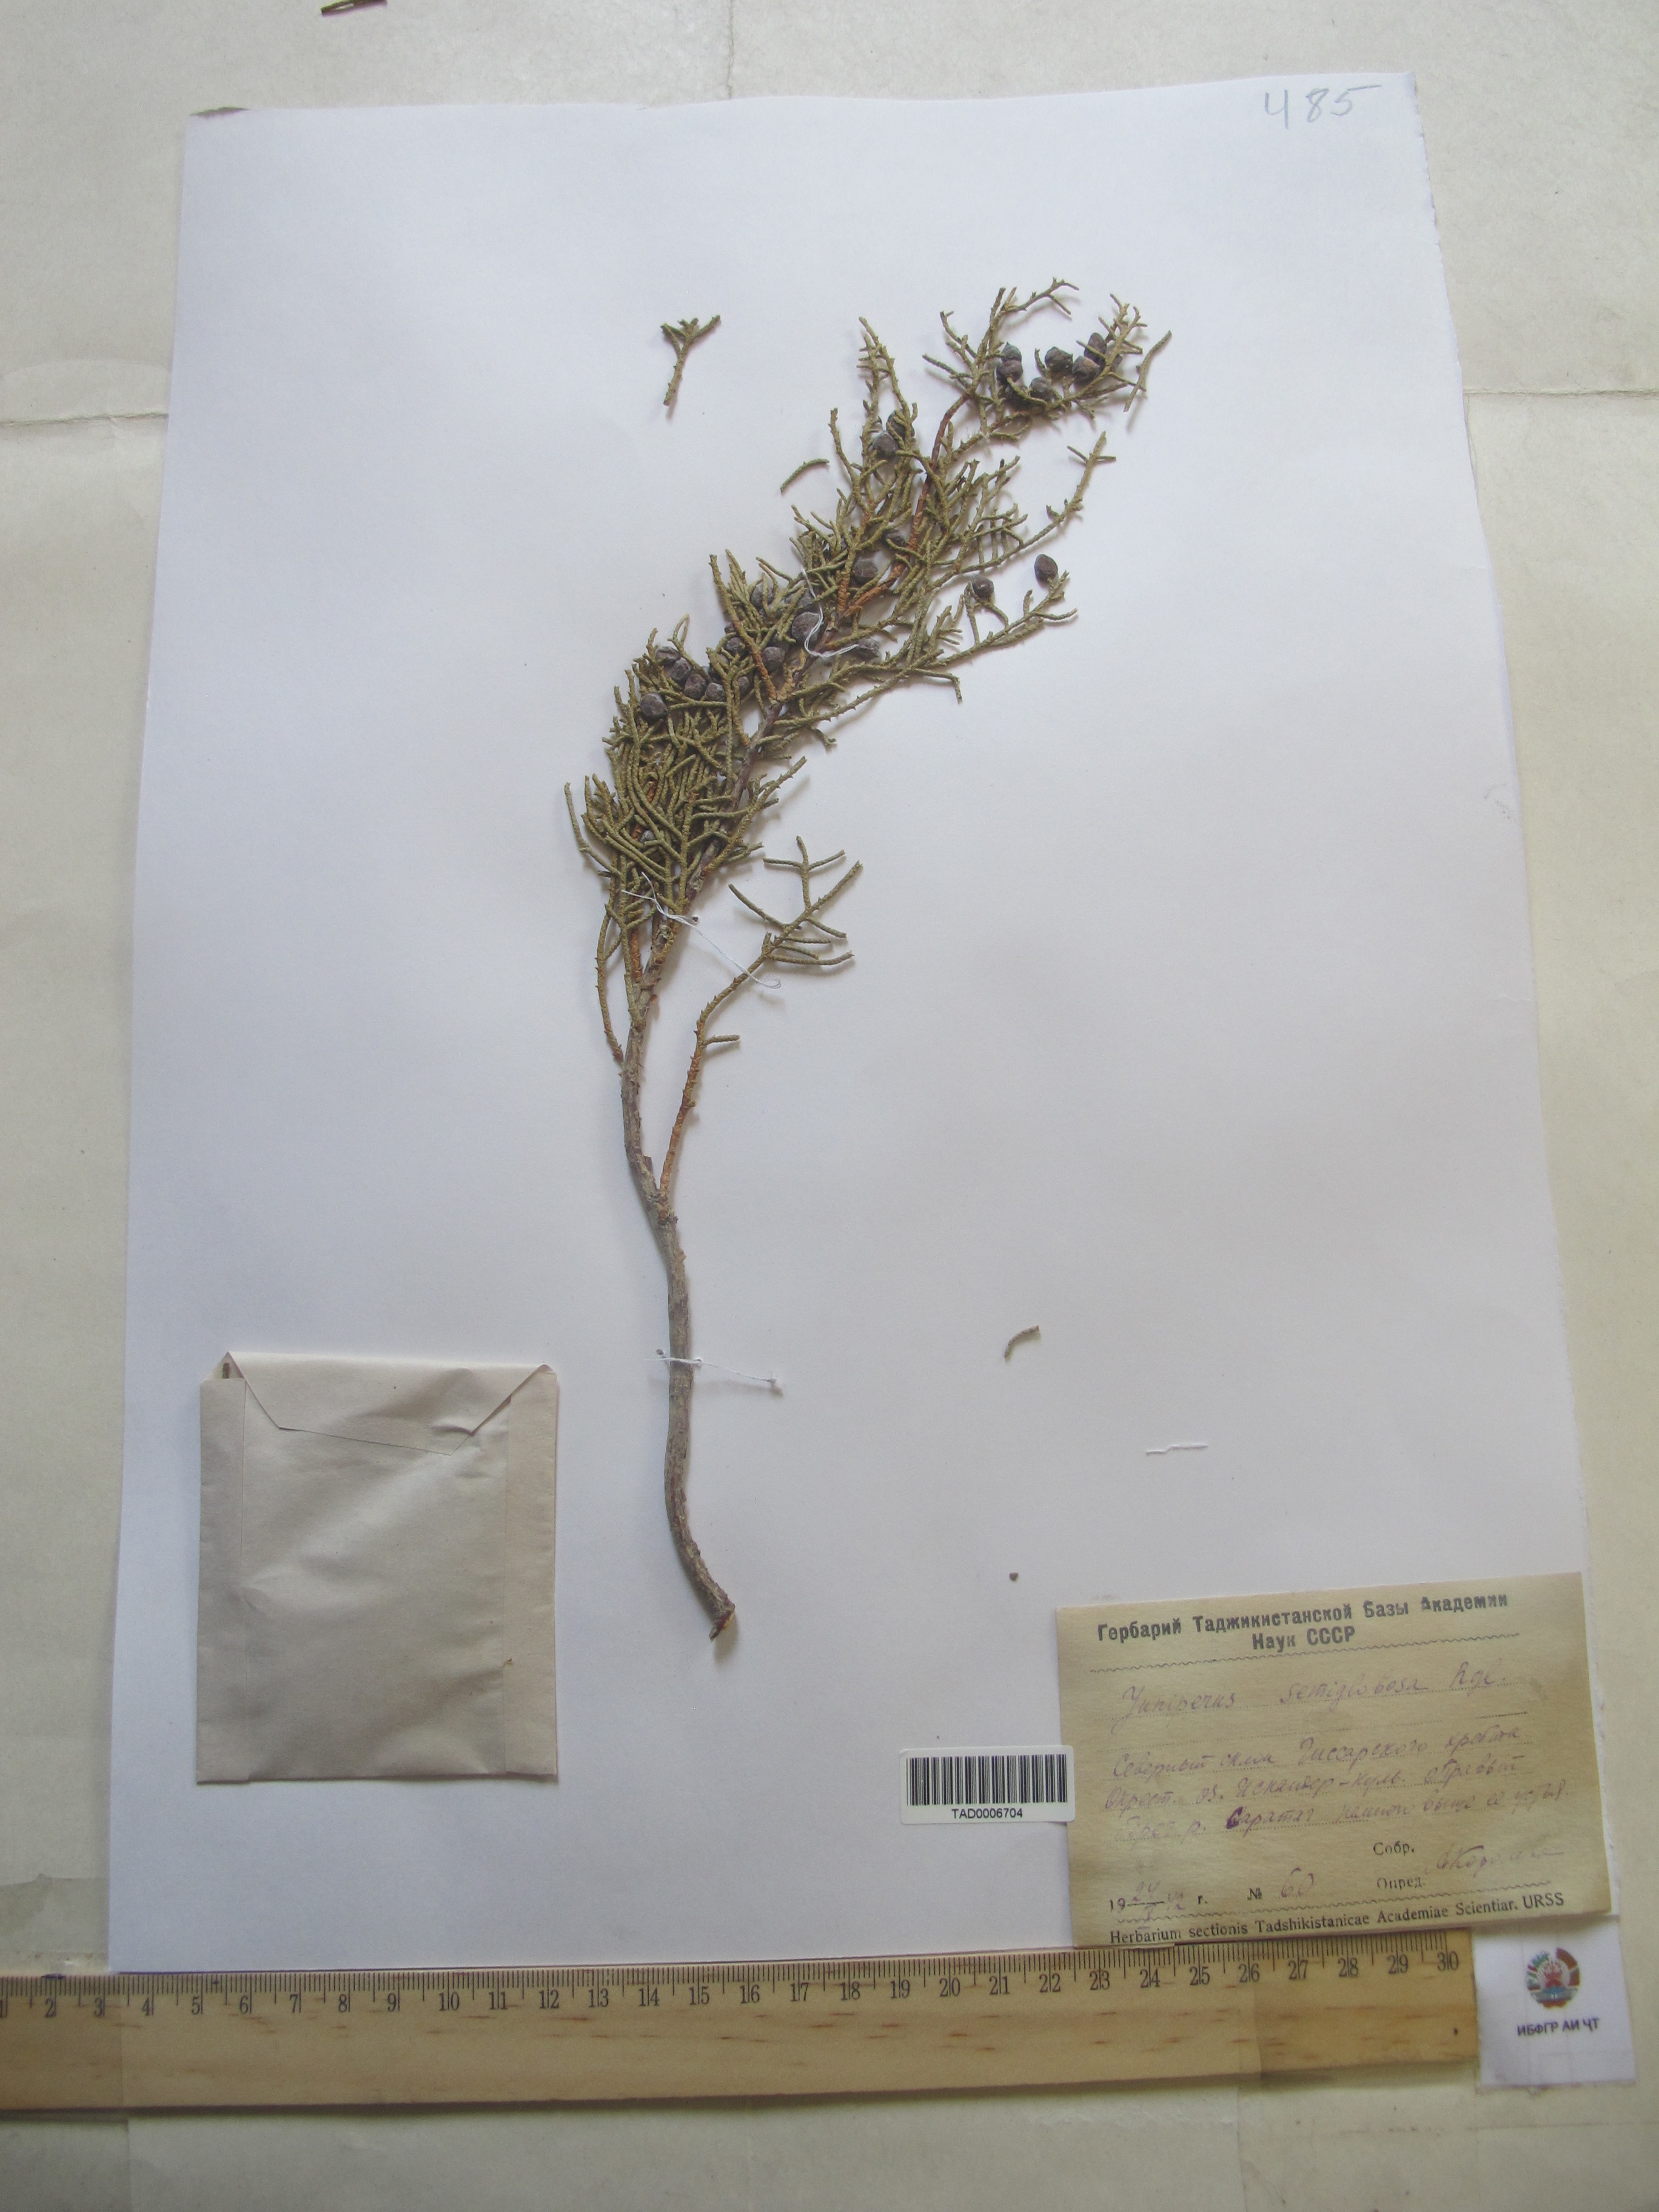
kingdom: Plantae
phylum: Tracheophyta
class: Pinopsida
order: Pinales
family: Cupressaceae
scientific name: Cupressaceae
